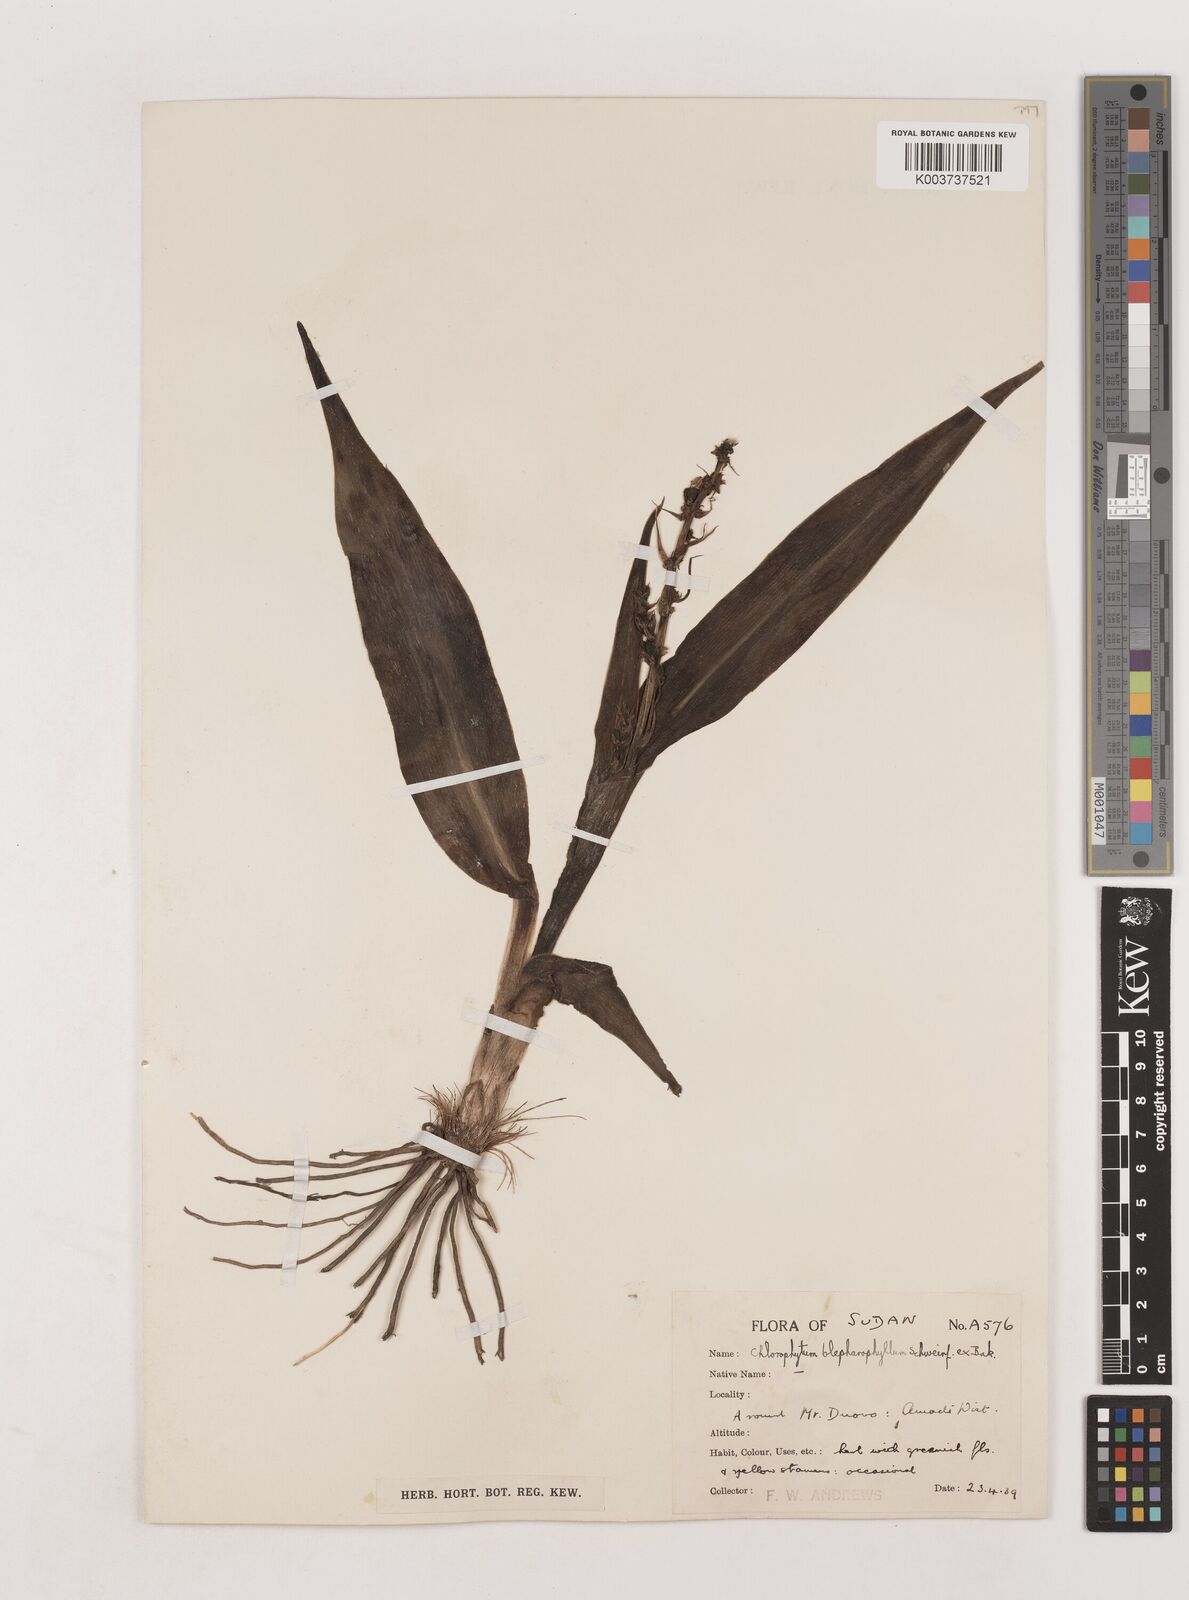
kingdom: Plantae
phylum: Tracheophyta
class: Liliopsida
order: Asparagales
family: Asparagaceae
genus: Chlorophytum
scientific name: Chlorophytum blepharophyllum
